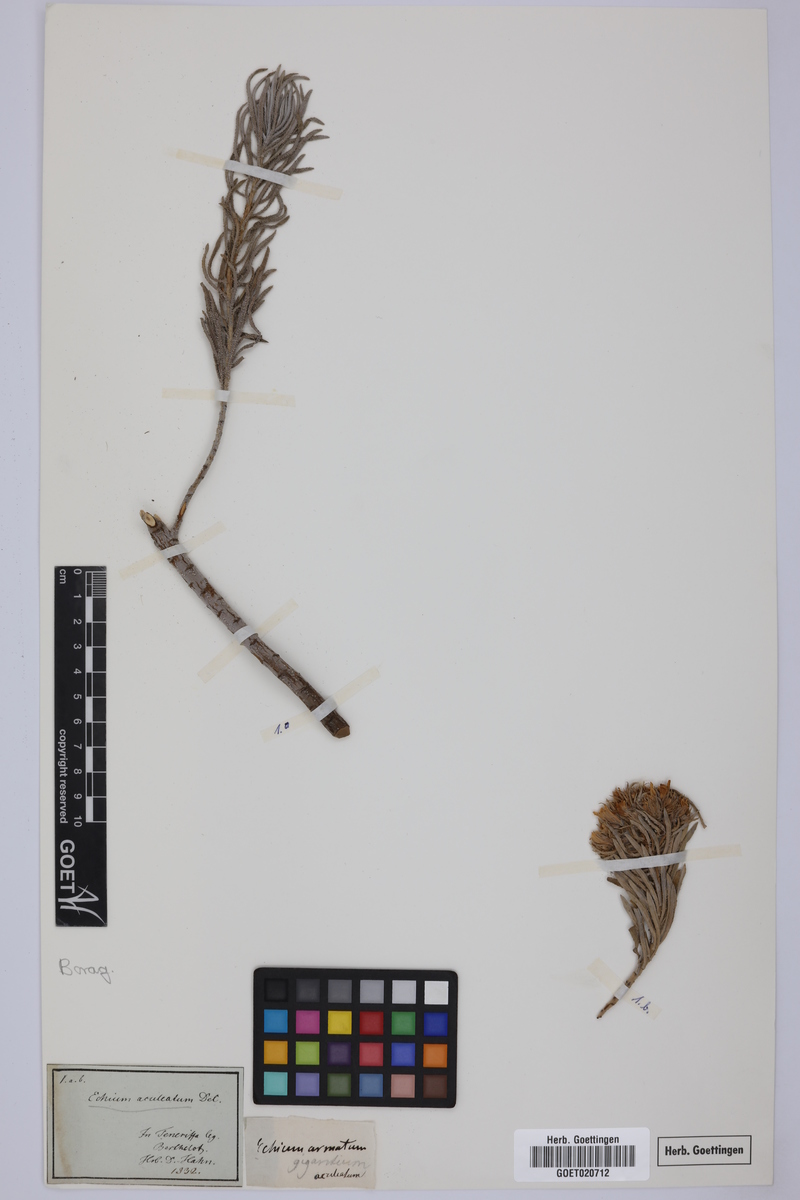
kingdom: Plantae
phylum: Tracheophyta
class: Magnoliopsida
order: Boraginales
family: Boraginaceae
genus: Echium
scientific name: Echium aculeatum
